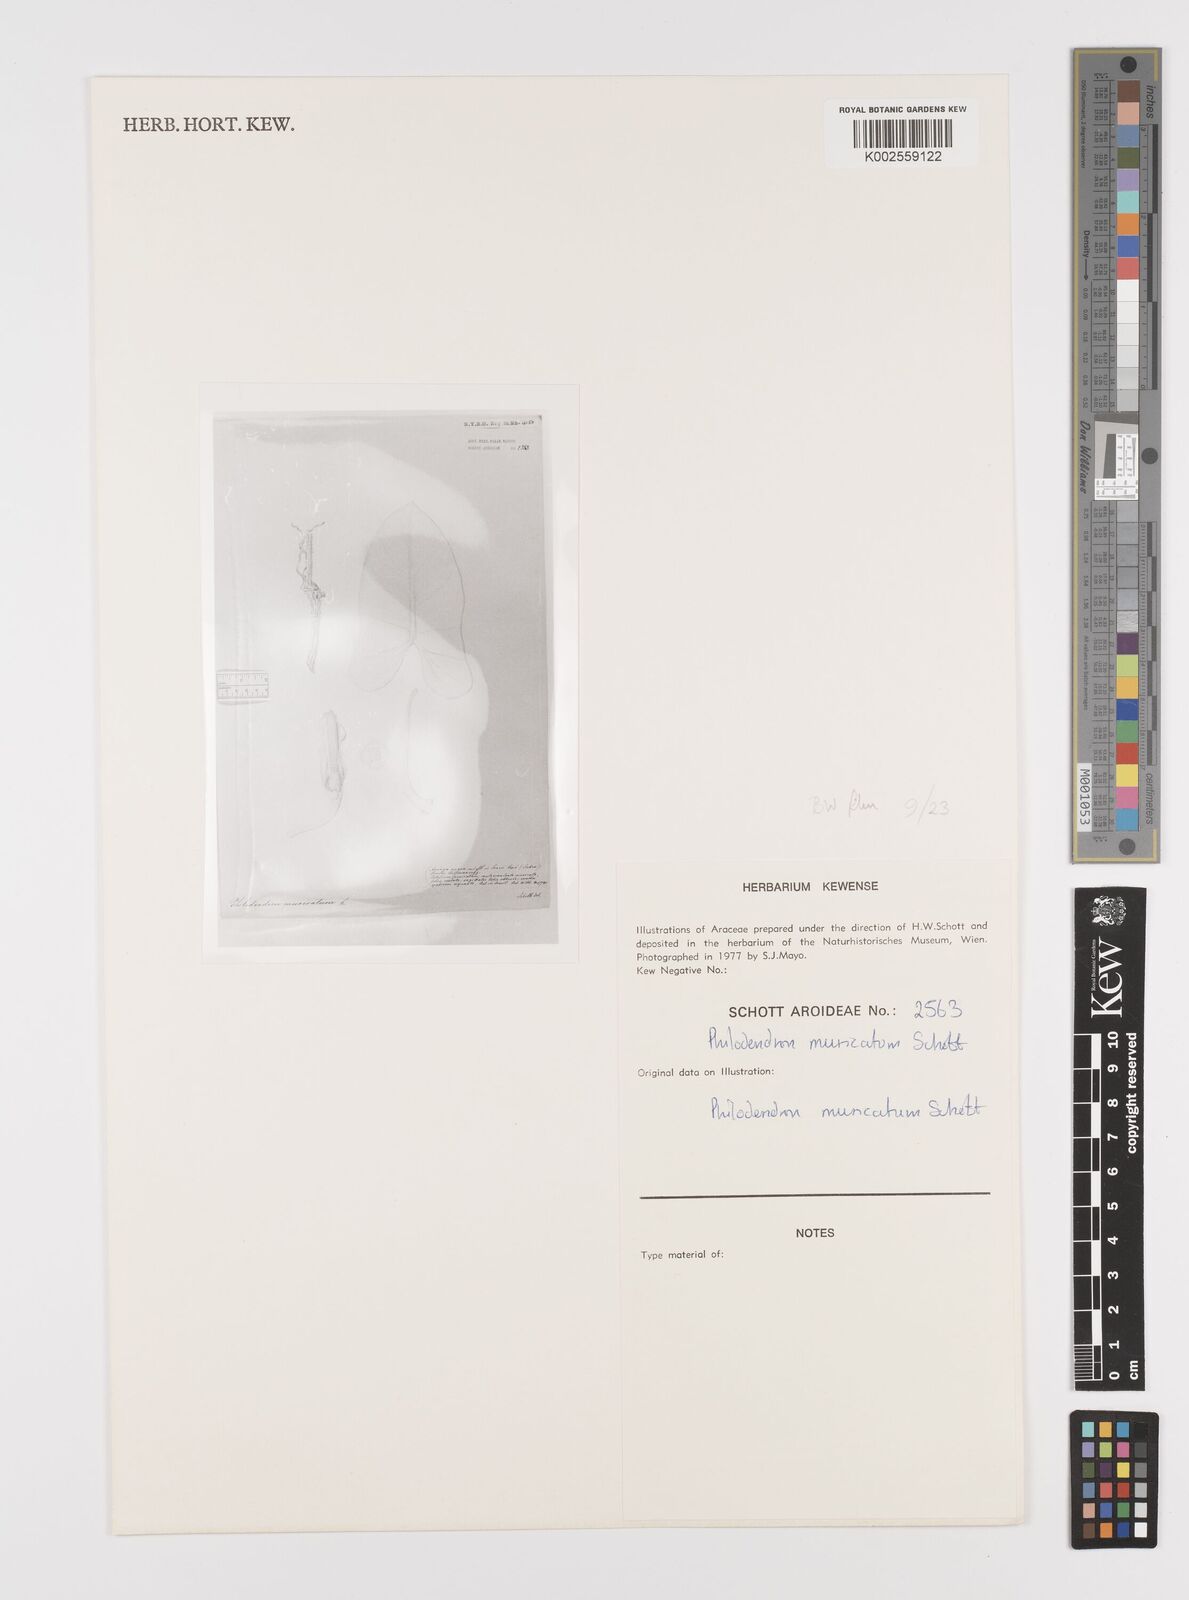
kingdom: Plantae
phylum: Tracheophyta
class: Liliopsida
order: Alismatales
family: Araceae
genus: Philodendron
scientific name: Philodendron muricatum
